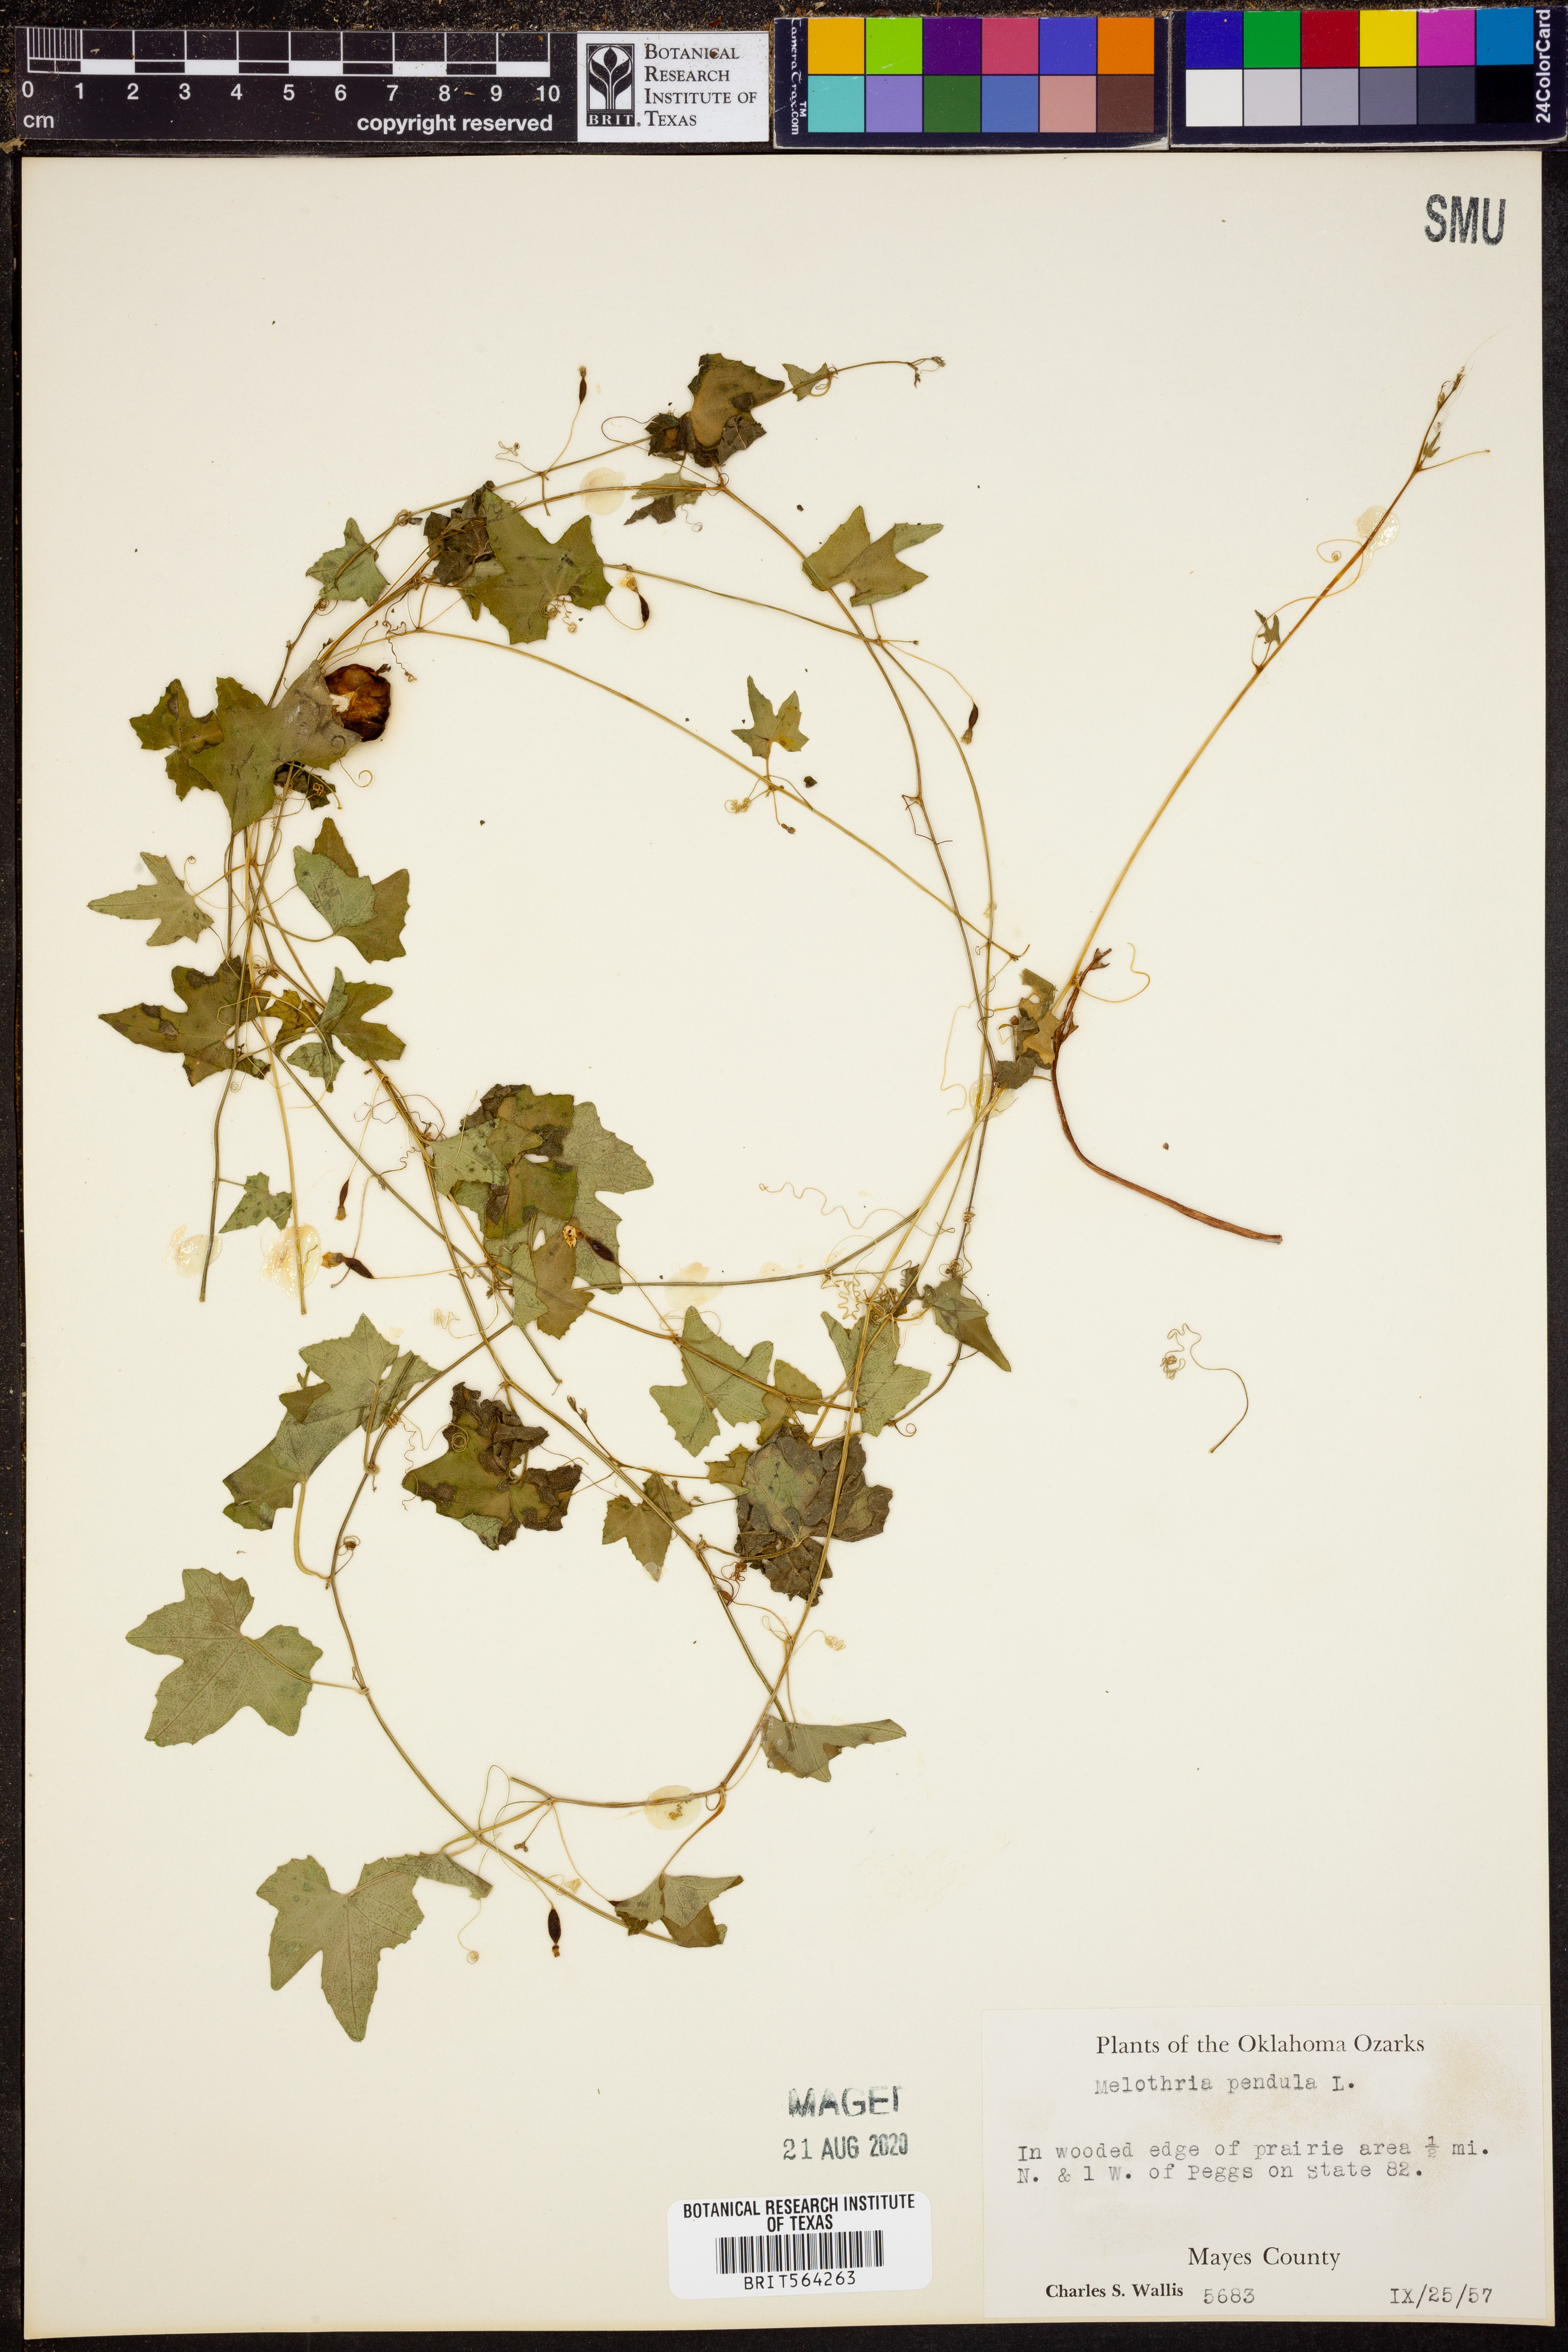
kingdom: Plantae
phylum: Tracheophyta
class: Magnoliopsida
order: Cucurbitales
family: Cucurbitaceae
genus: Melothria
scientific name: Melothria pendula
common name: Creeping-cucumber
